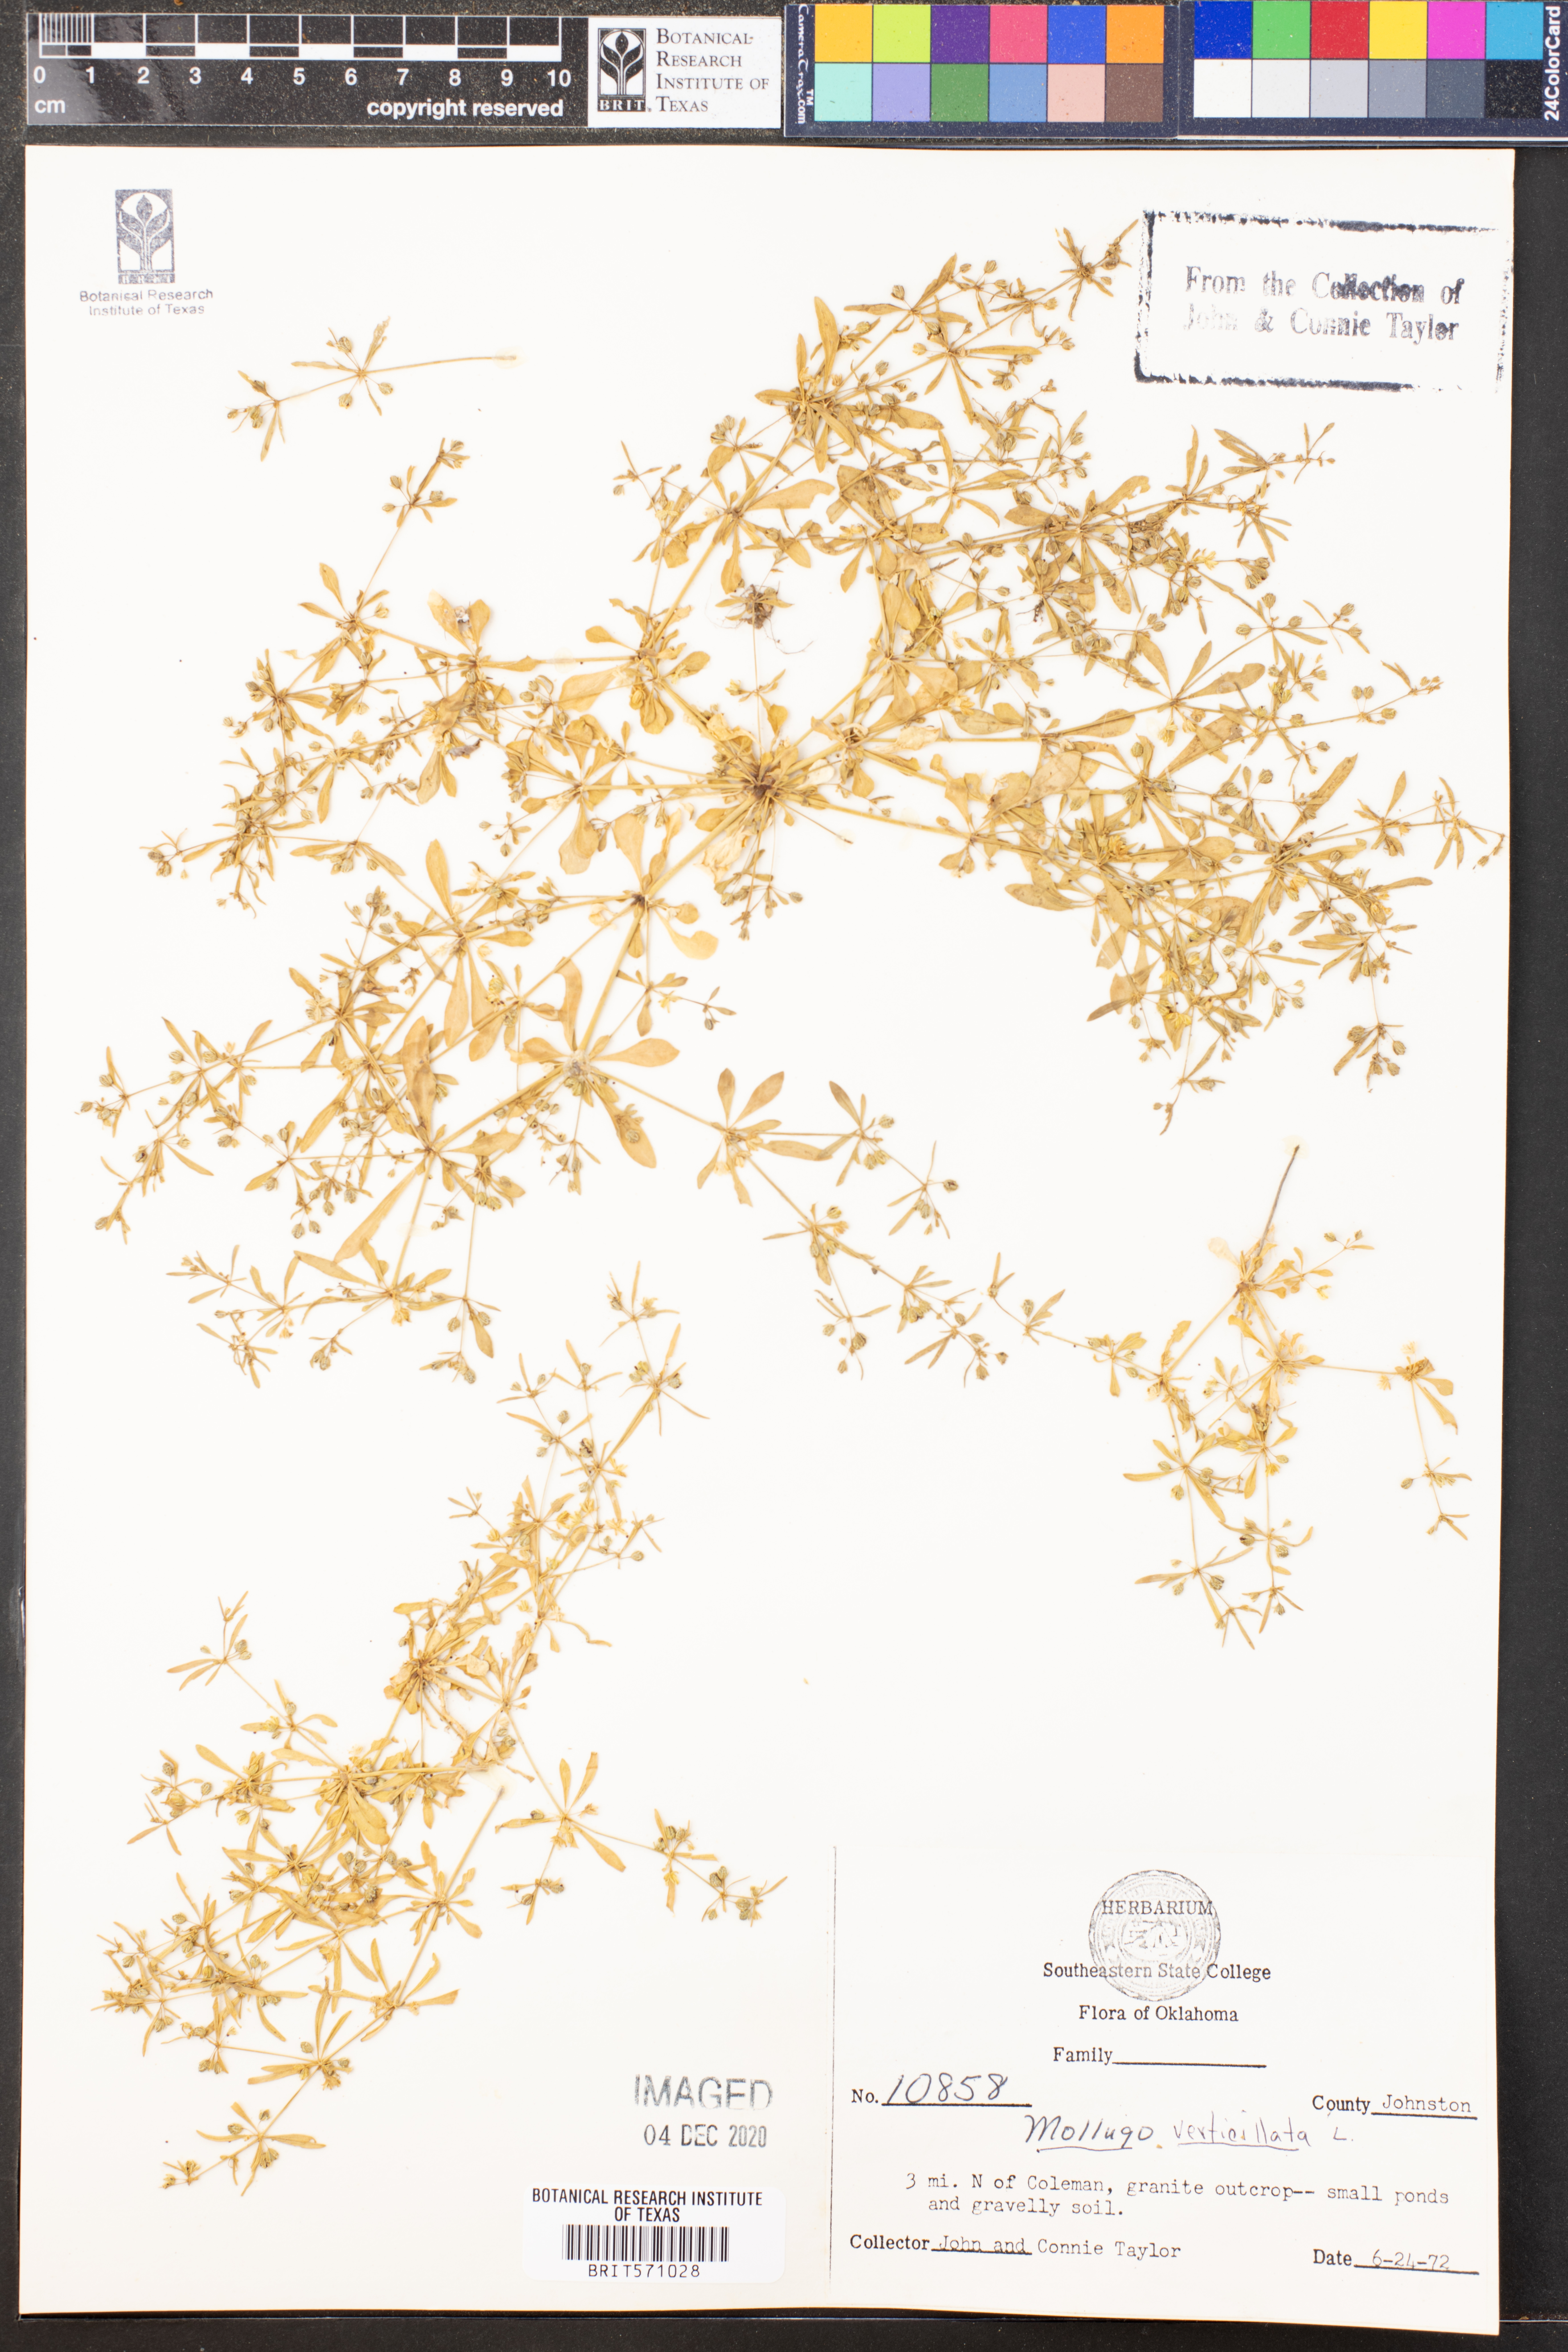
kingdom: Plantae
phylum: Tracheophyta
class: Magnoliopsida
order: Caryophyllales
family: Molluginaceae
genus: Mollugo
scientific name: Mollugo verticillata
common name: Green carpetweed
